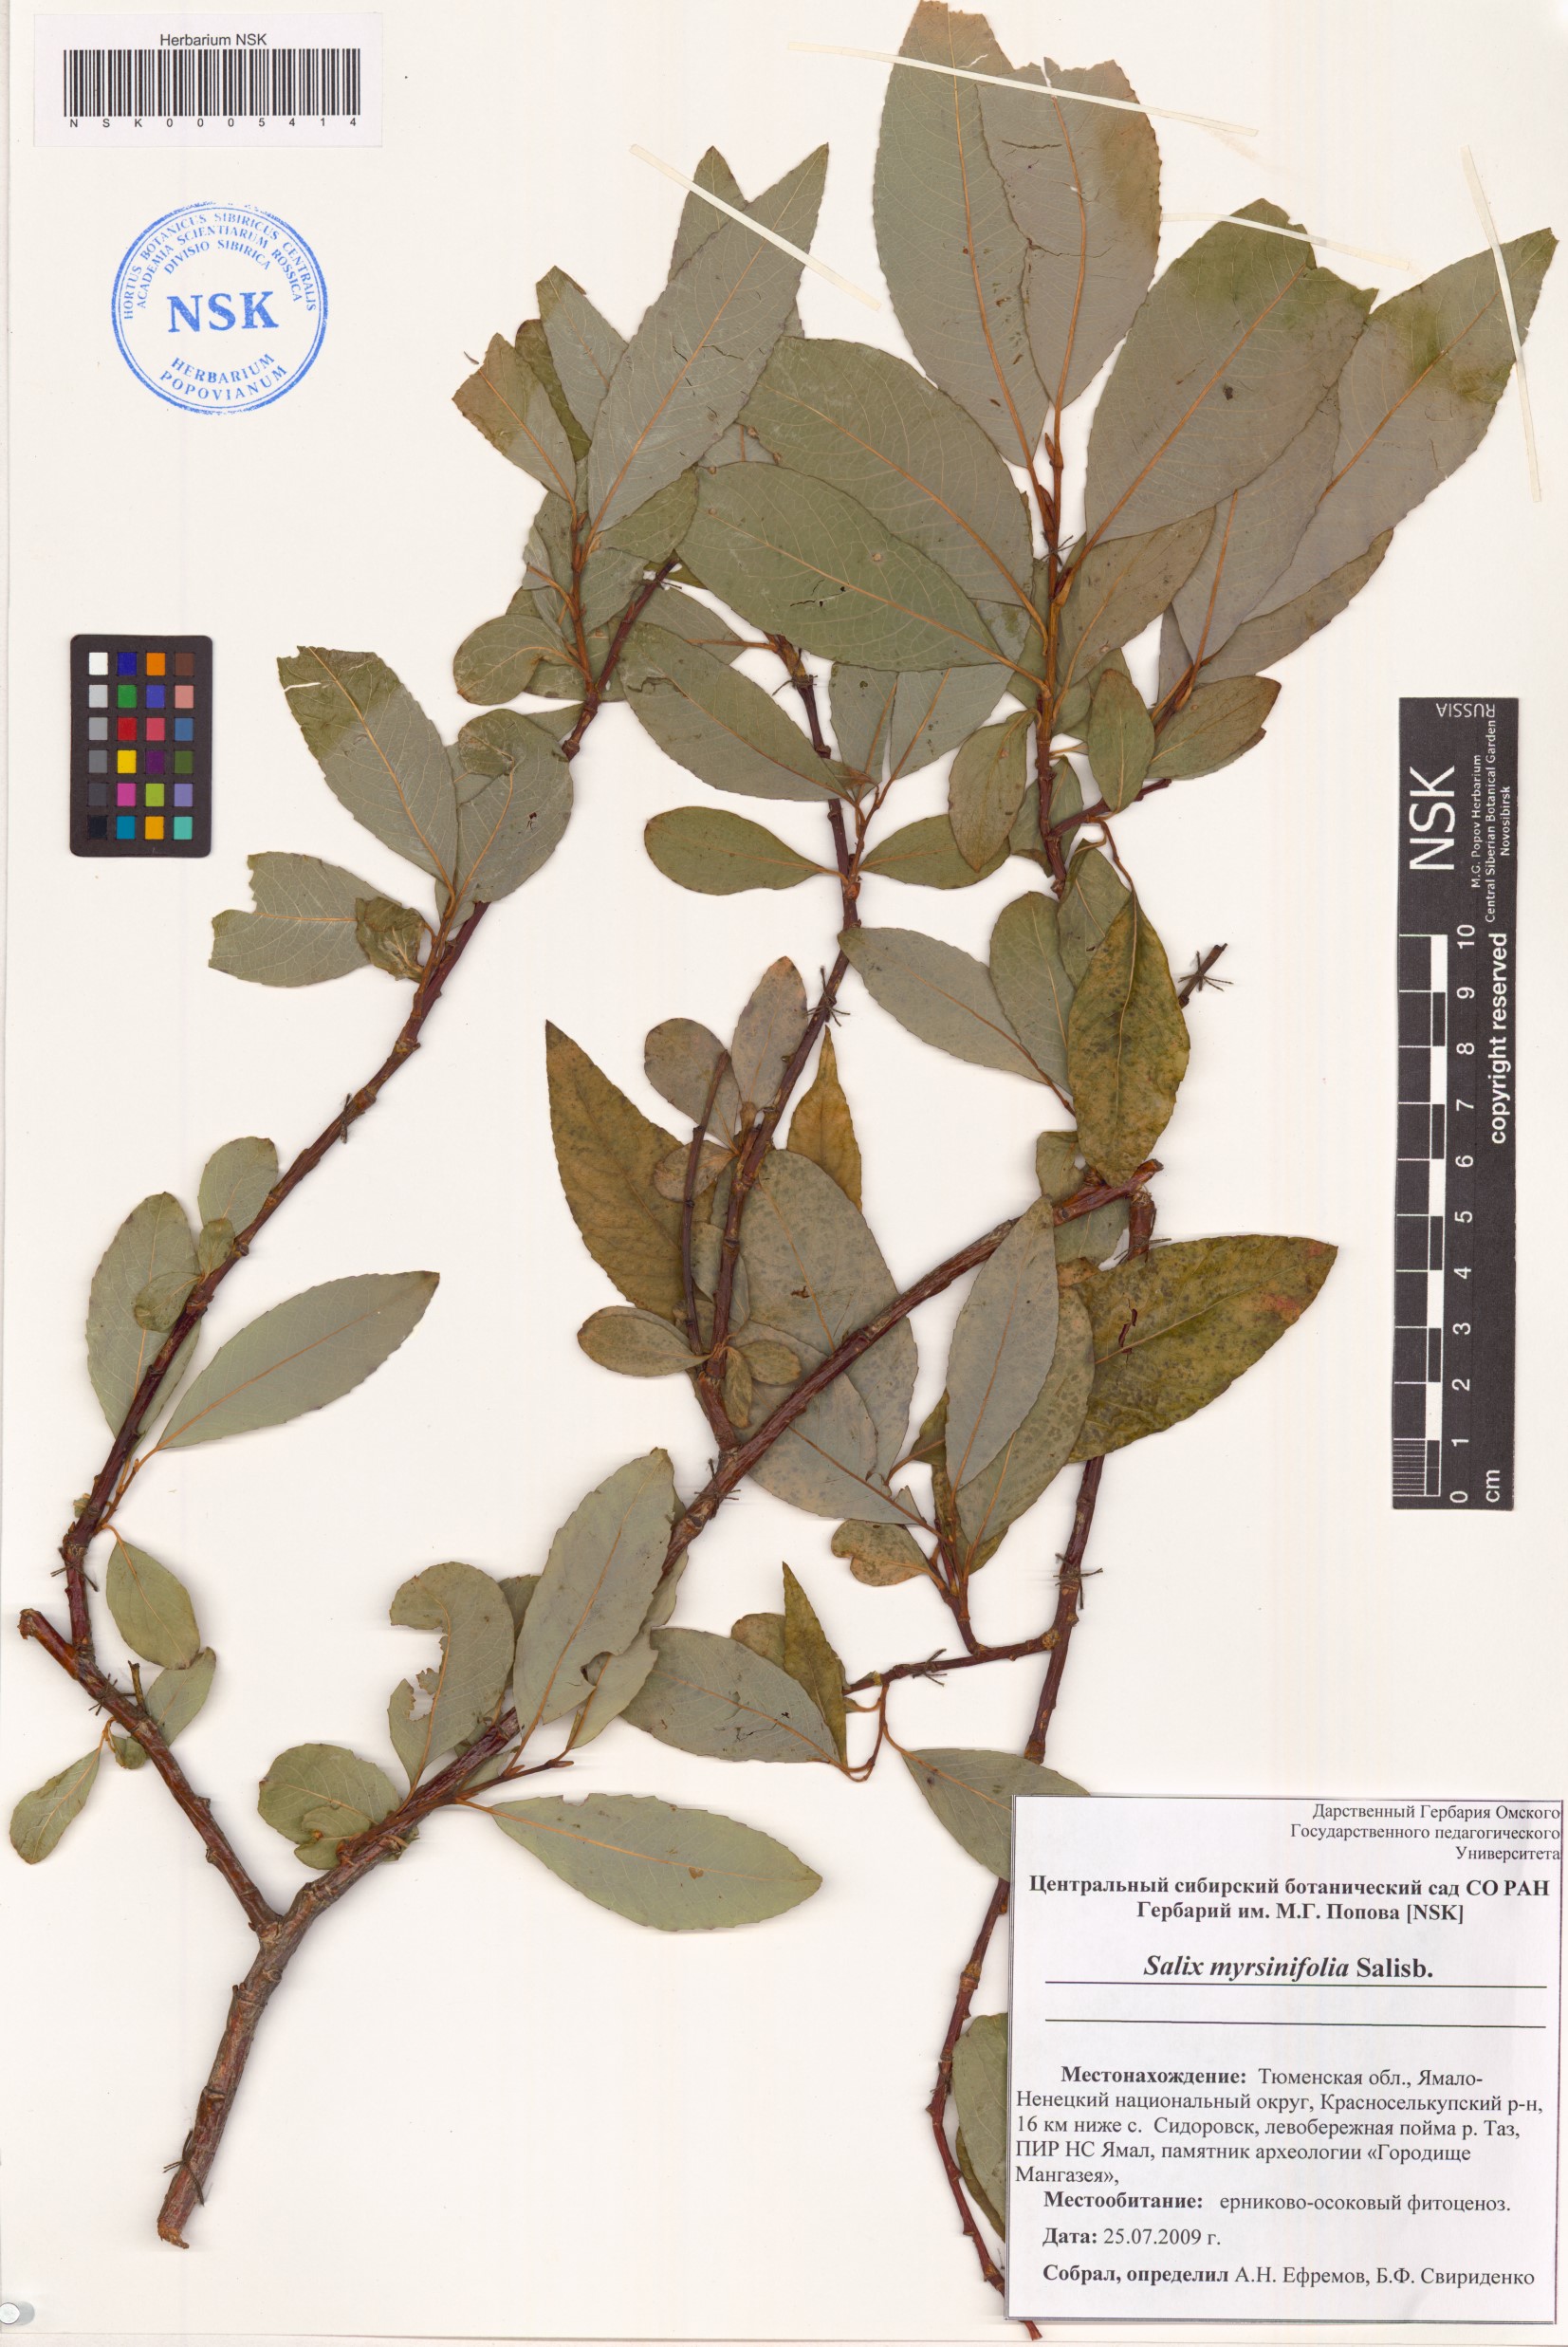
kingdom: Plantae
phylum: Tracheophyta
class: Magnoliopsida
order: Malpighiales
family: Salicaceae
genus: Salix
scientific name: Salix myrsinifolia
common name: Dark-leaved willow
